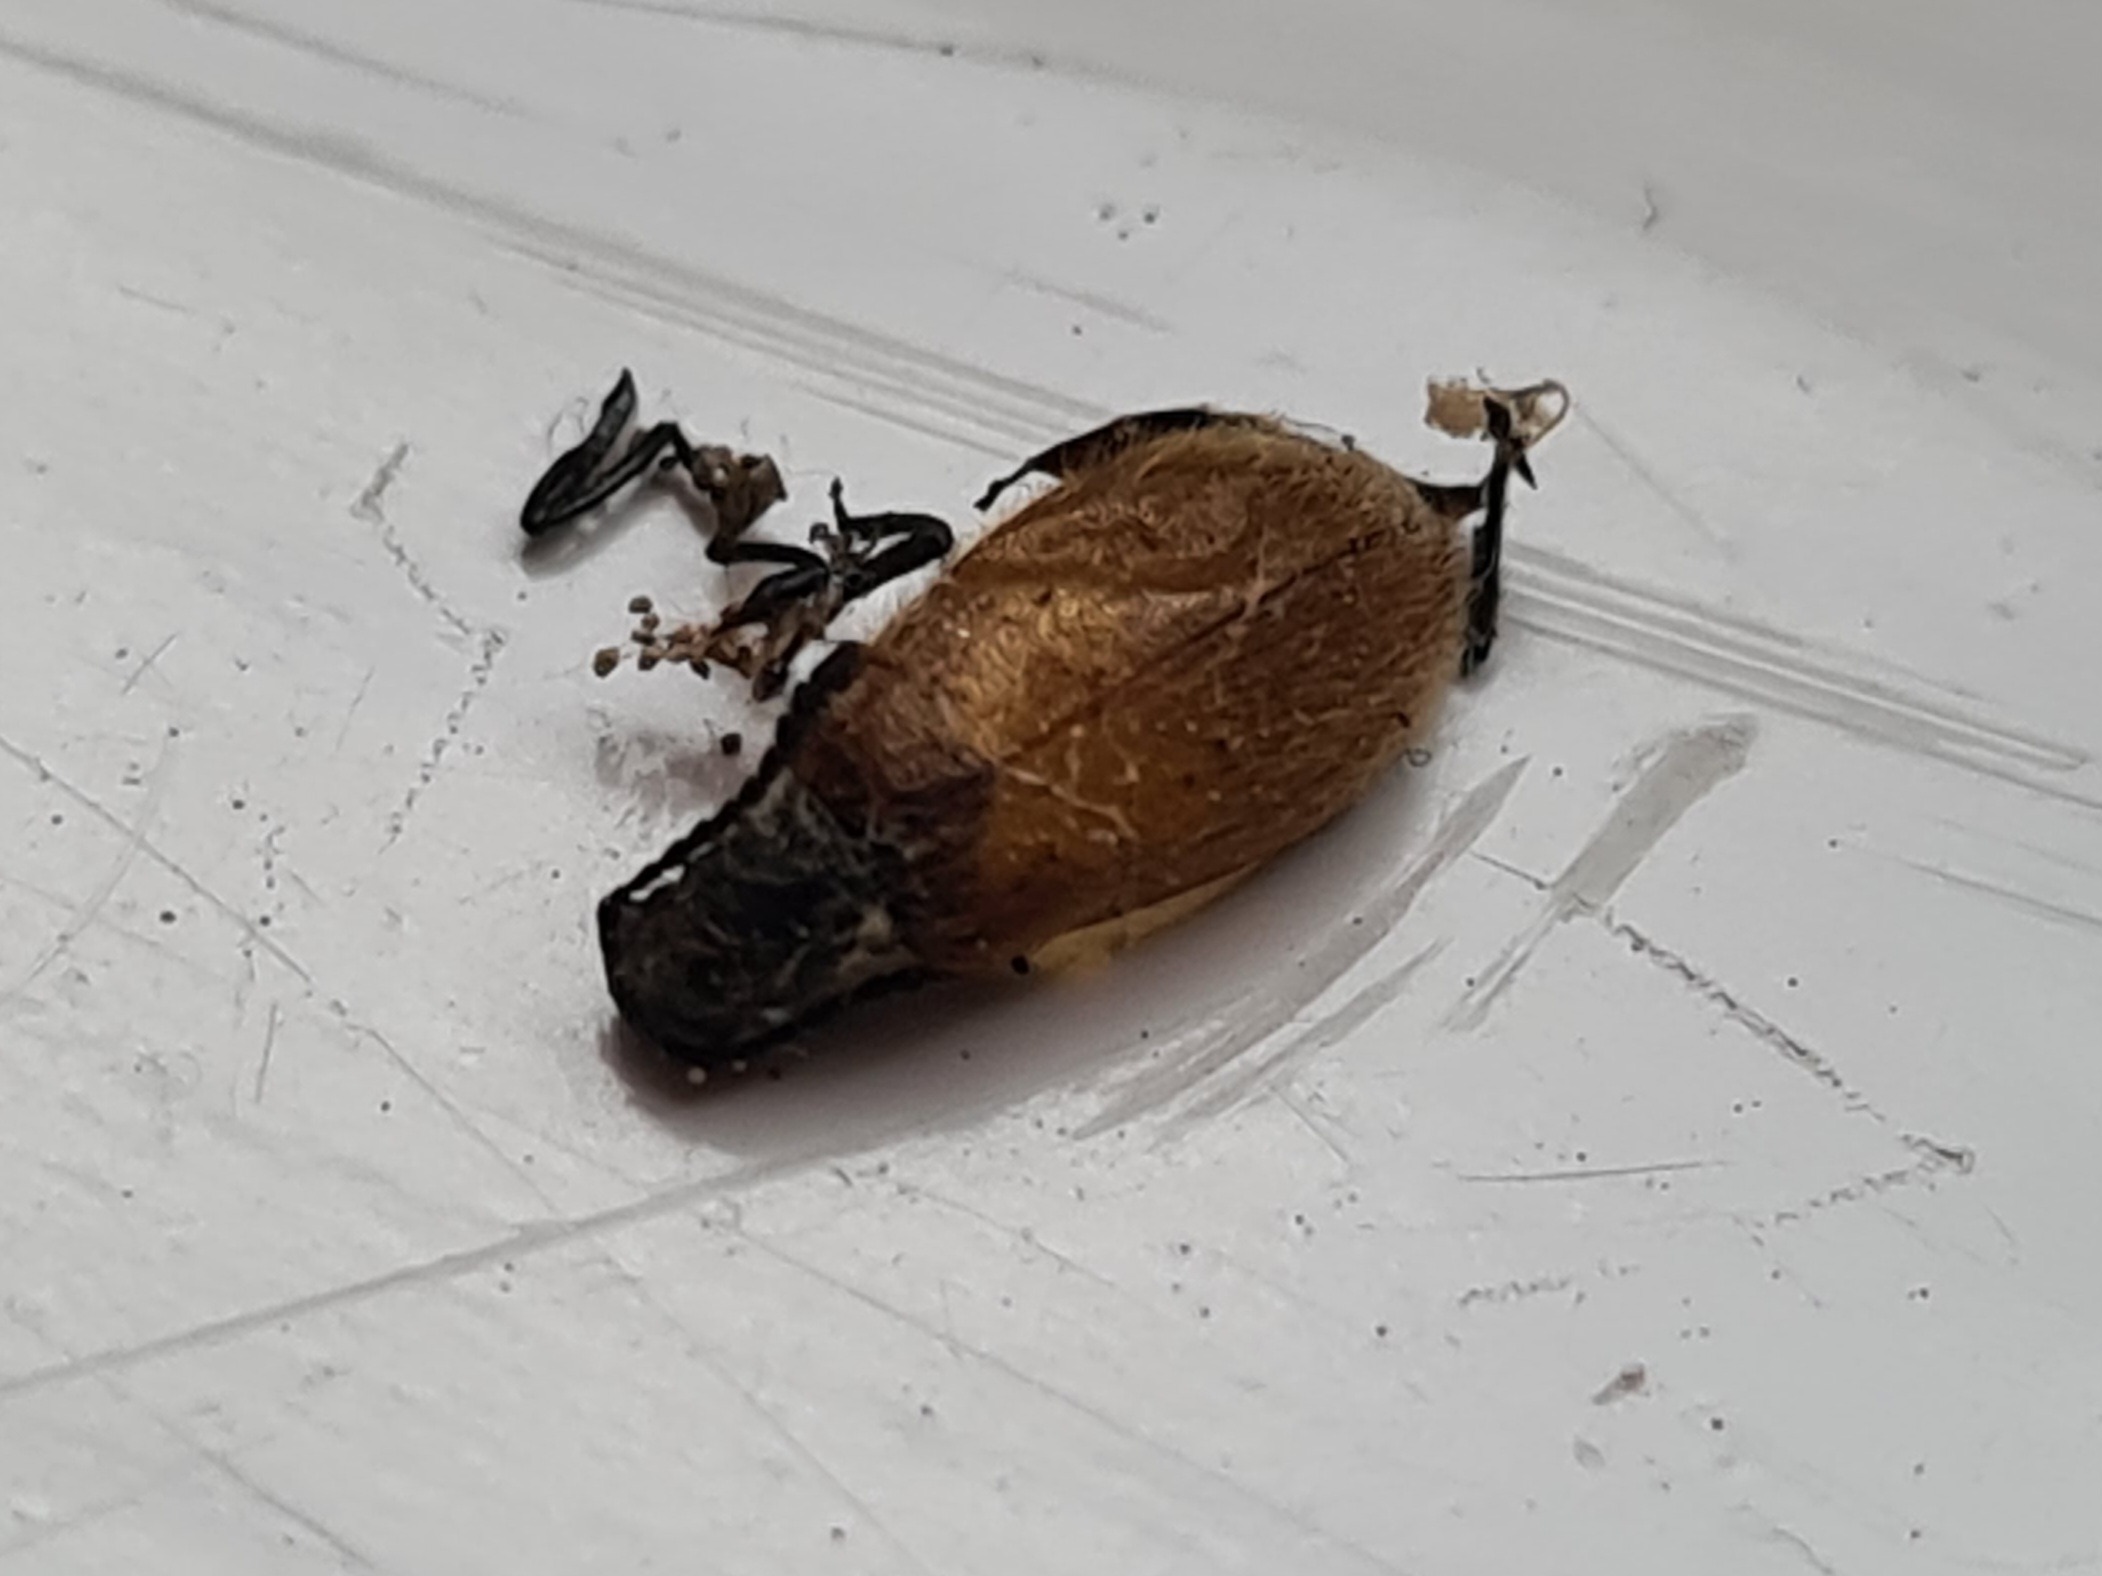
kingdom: Animalia
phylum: Arthropoda
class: Insecta
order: Coleoptera
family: Tenebrionidae
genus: Lagria
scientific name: Lagria hirta
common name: Håret skyggebille
